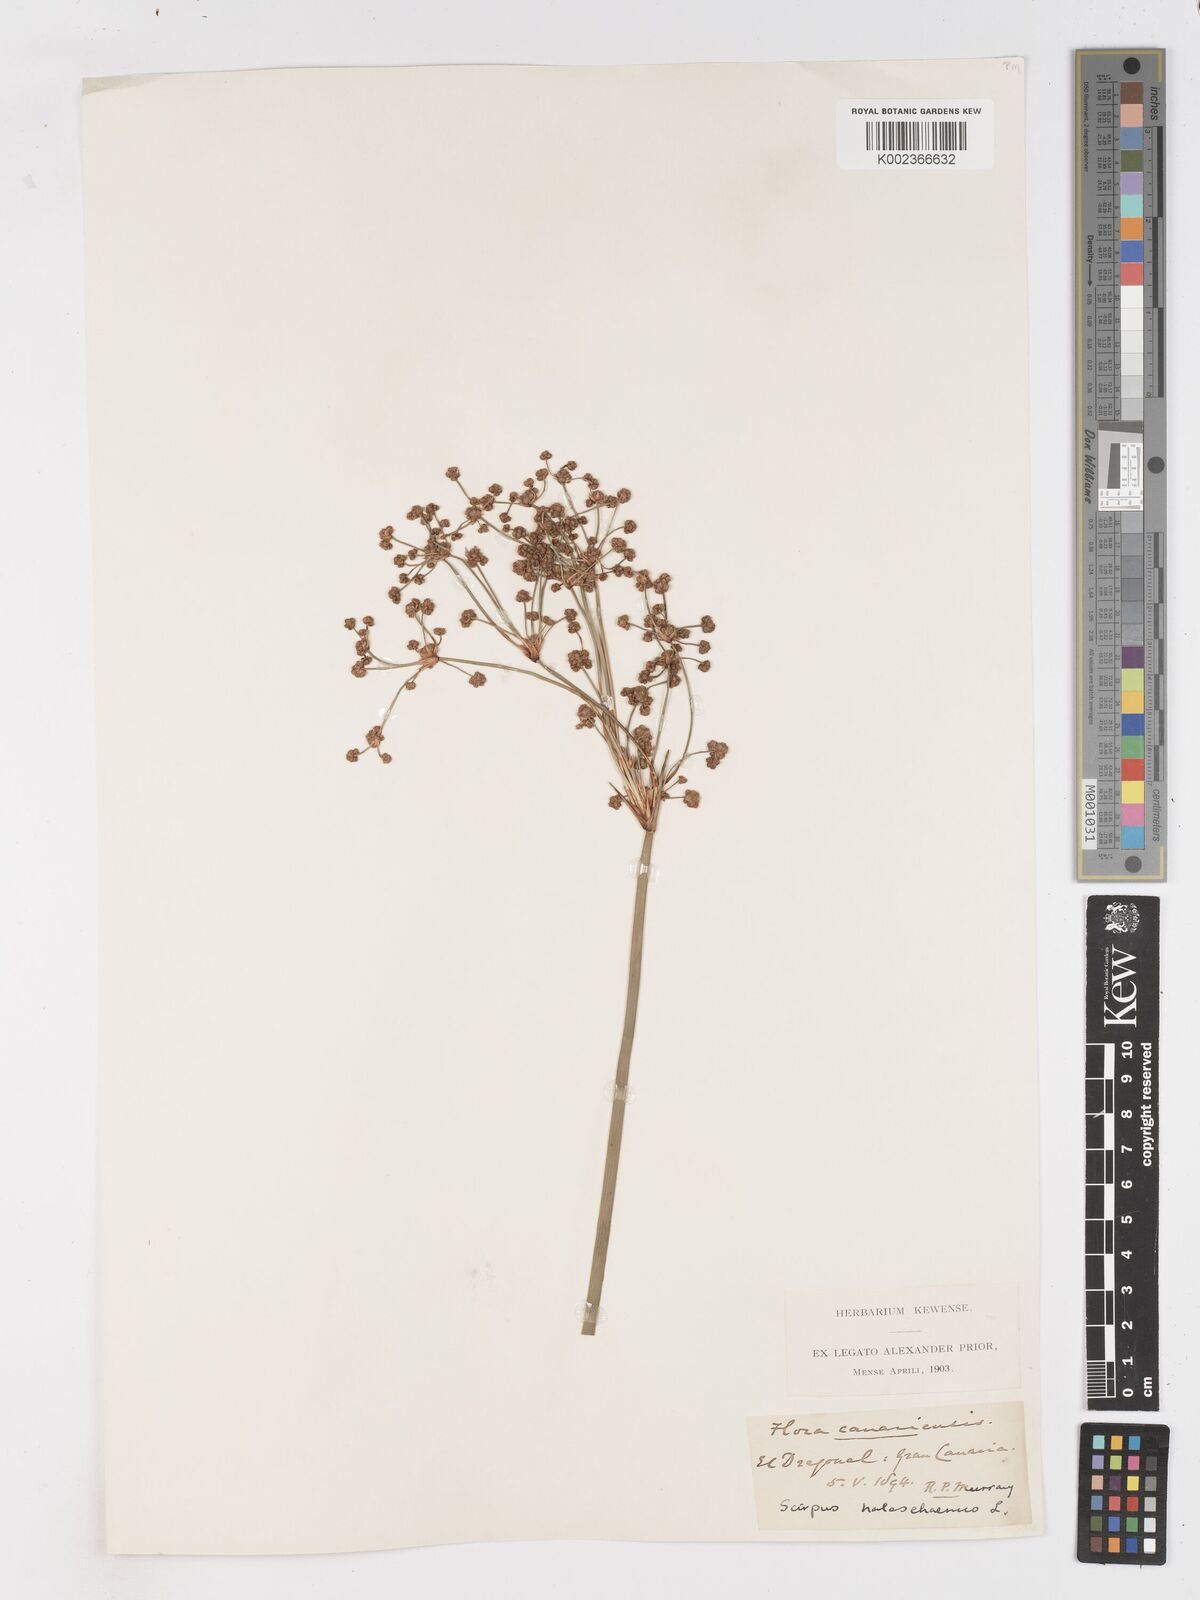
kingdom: Plantae
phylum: Tracheophyta
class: Liliopsida
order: Poales
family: Cyperaceae
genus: Scirpoides
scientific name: Scirpoides holoschoenus
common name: Round-headed club-rush
